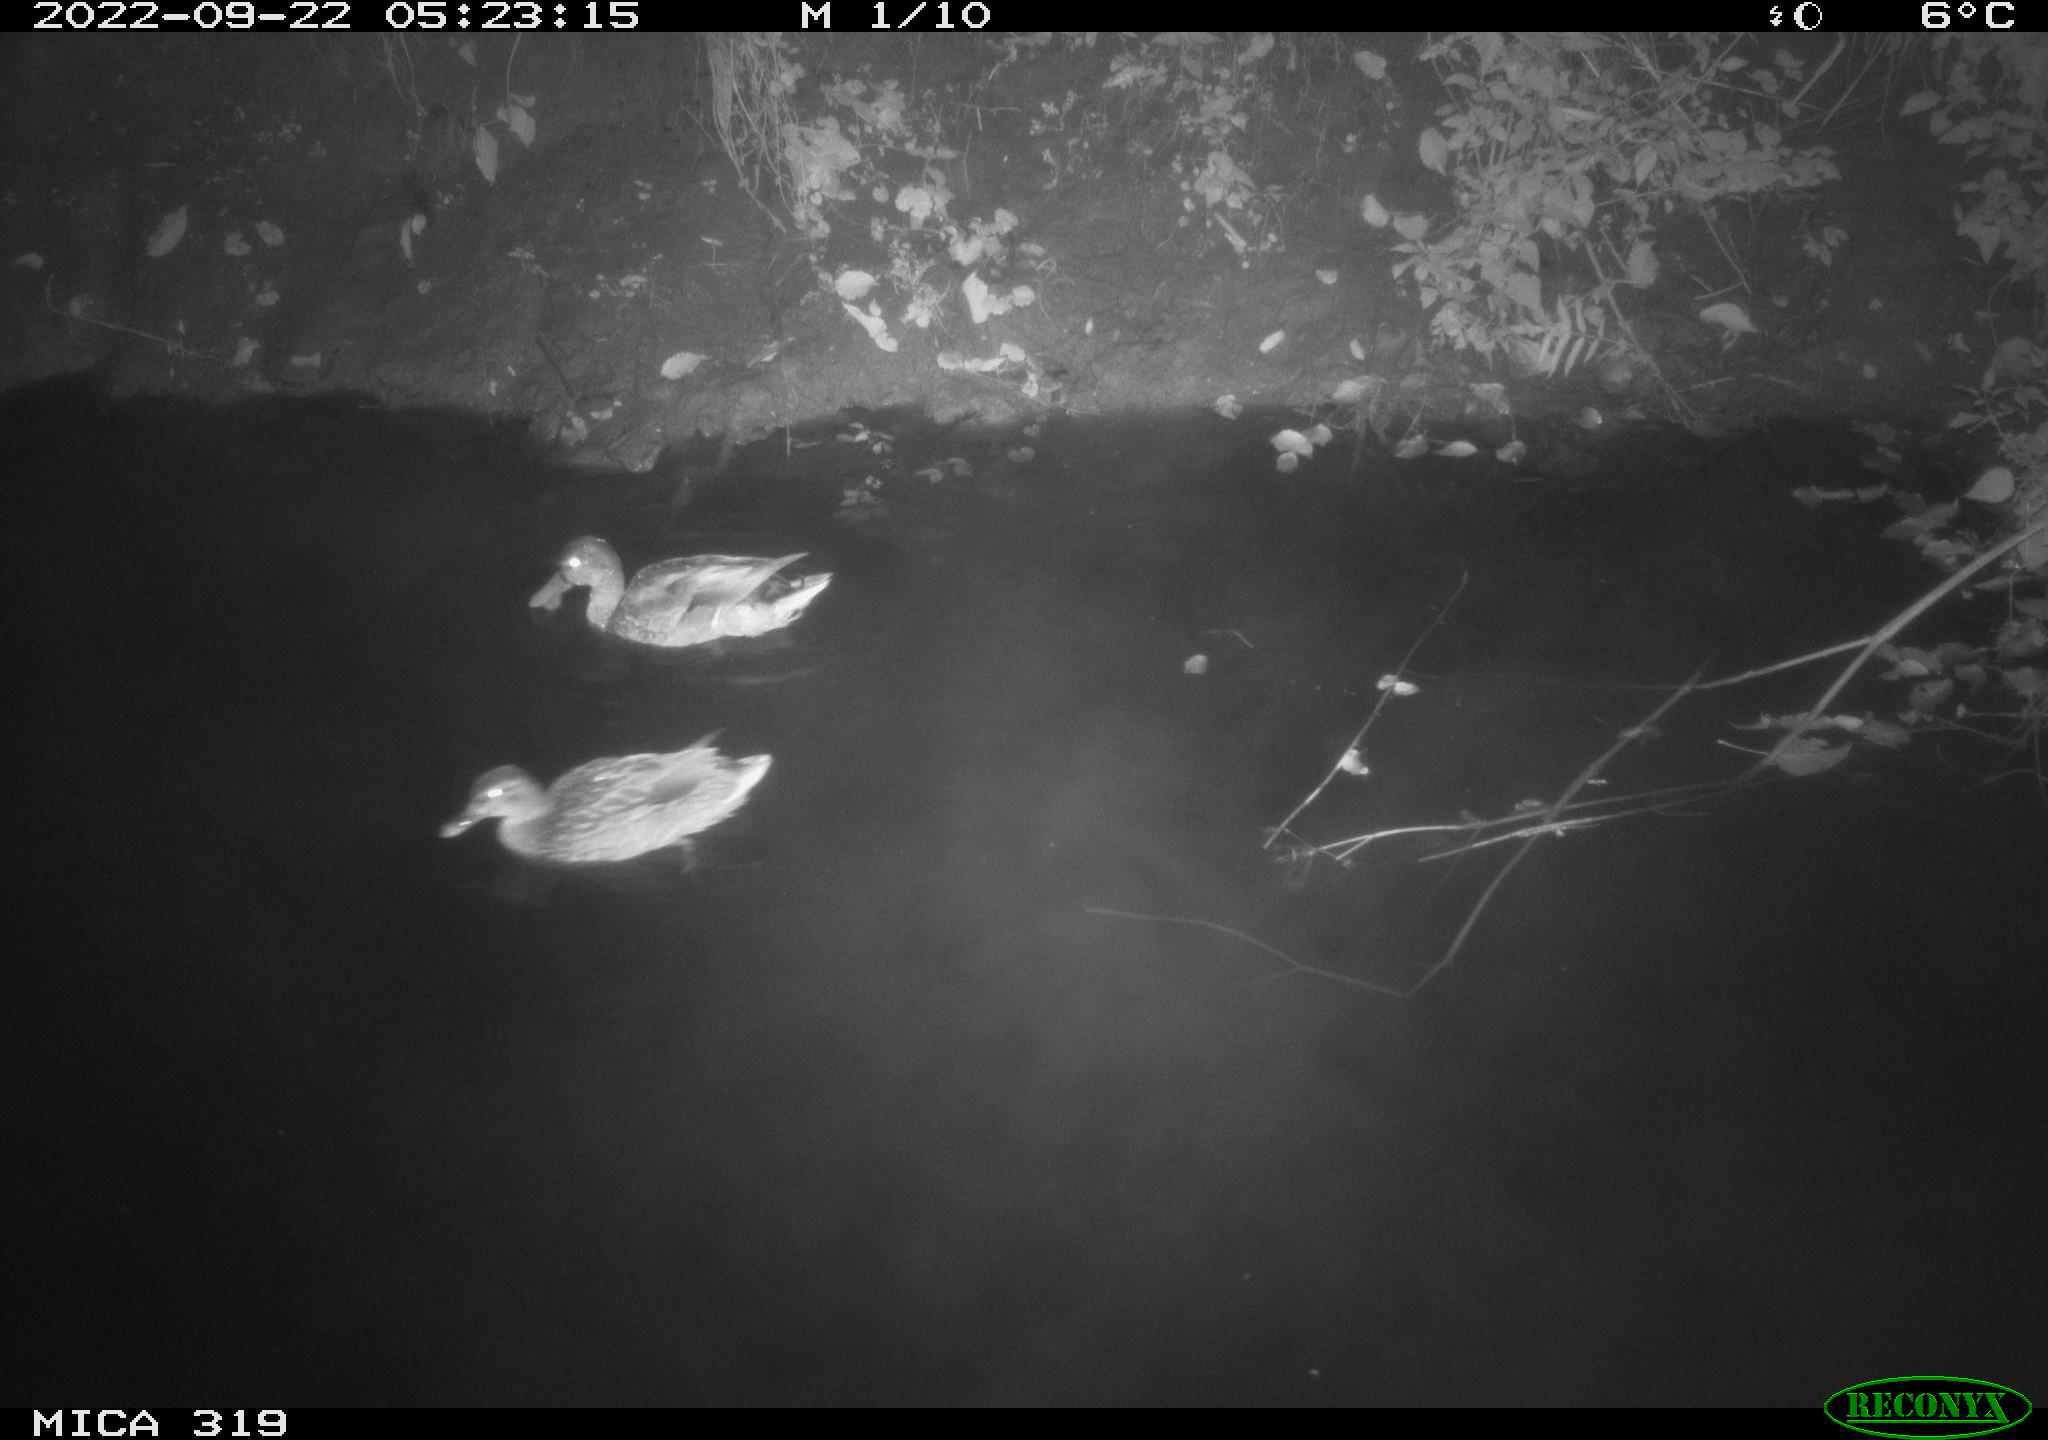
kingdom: Animalia
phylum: Chordata
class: Aves
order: Anseriformes
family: Anatidae
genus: Anas
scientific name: Anas
